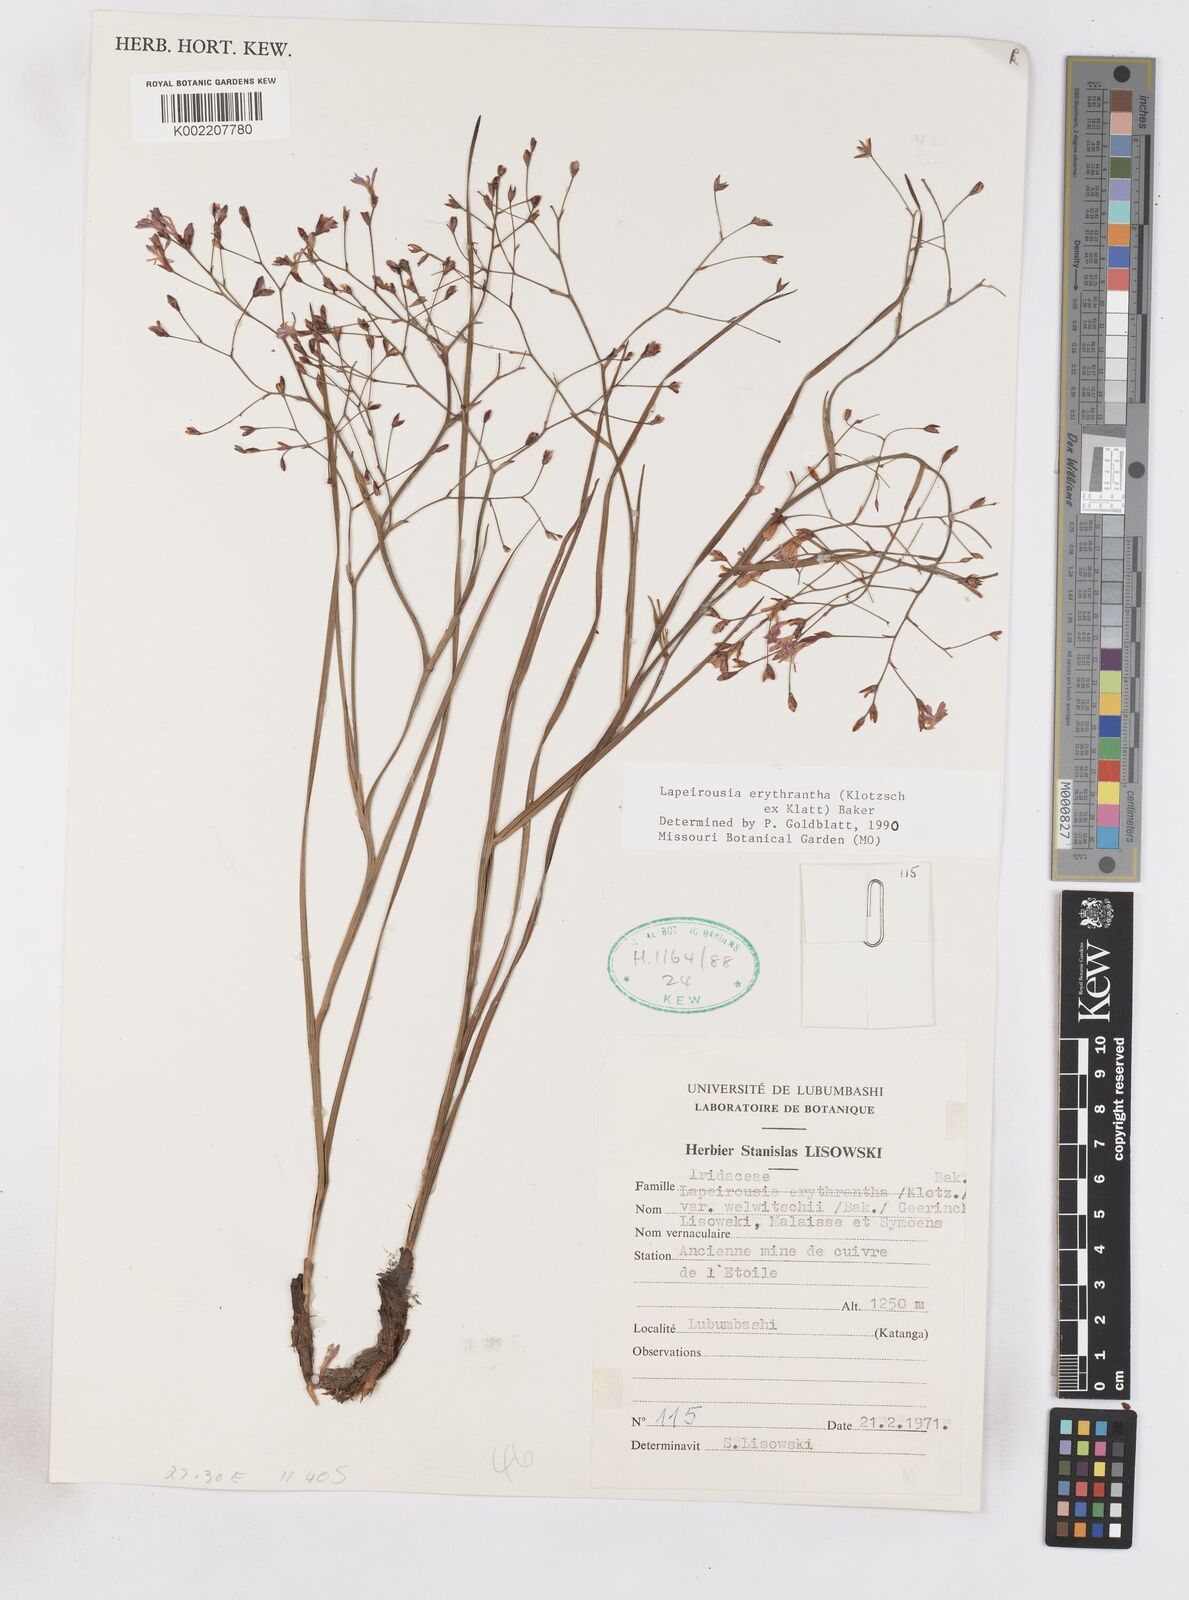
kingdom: Plantae
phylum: Tracheophyta
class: Liliopsida
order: Asparagales
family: Iridaceae
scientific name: Iridaceae
